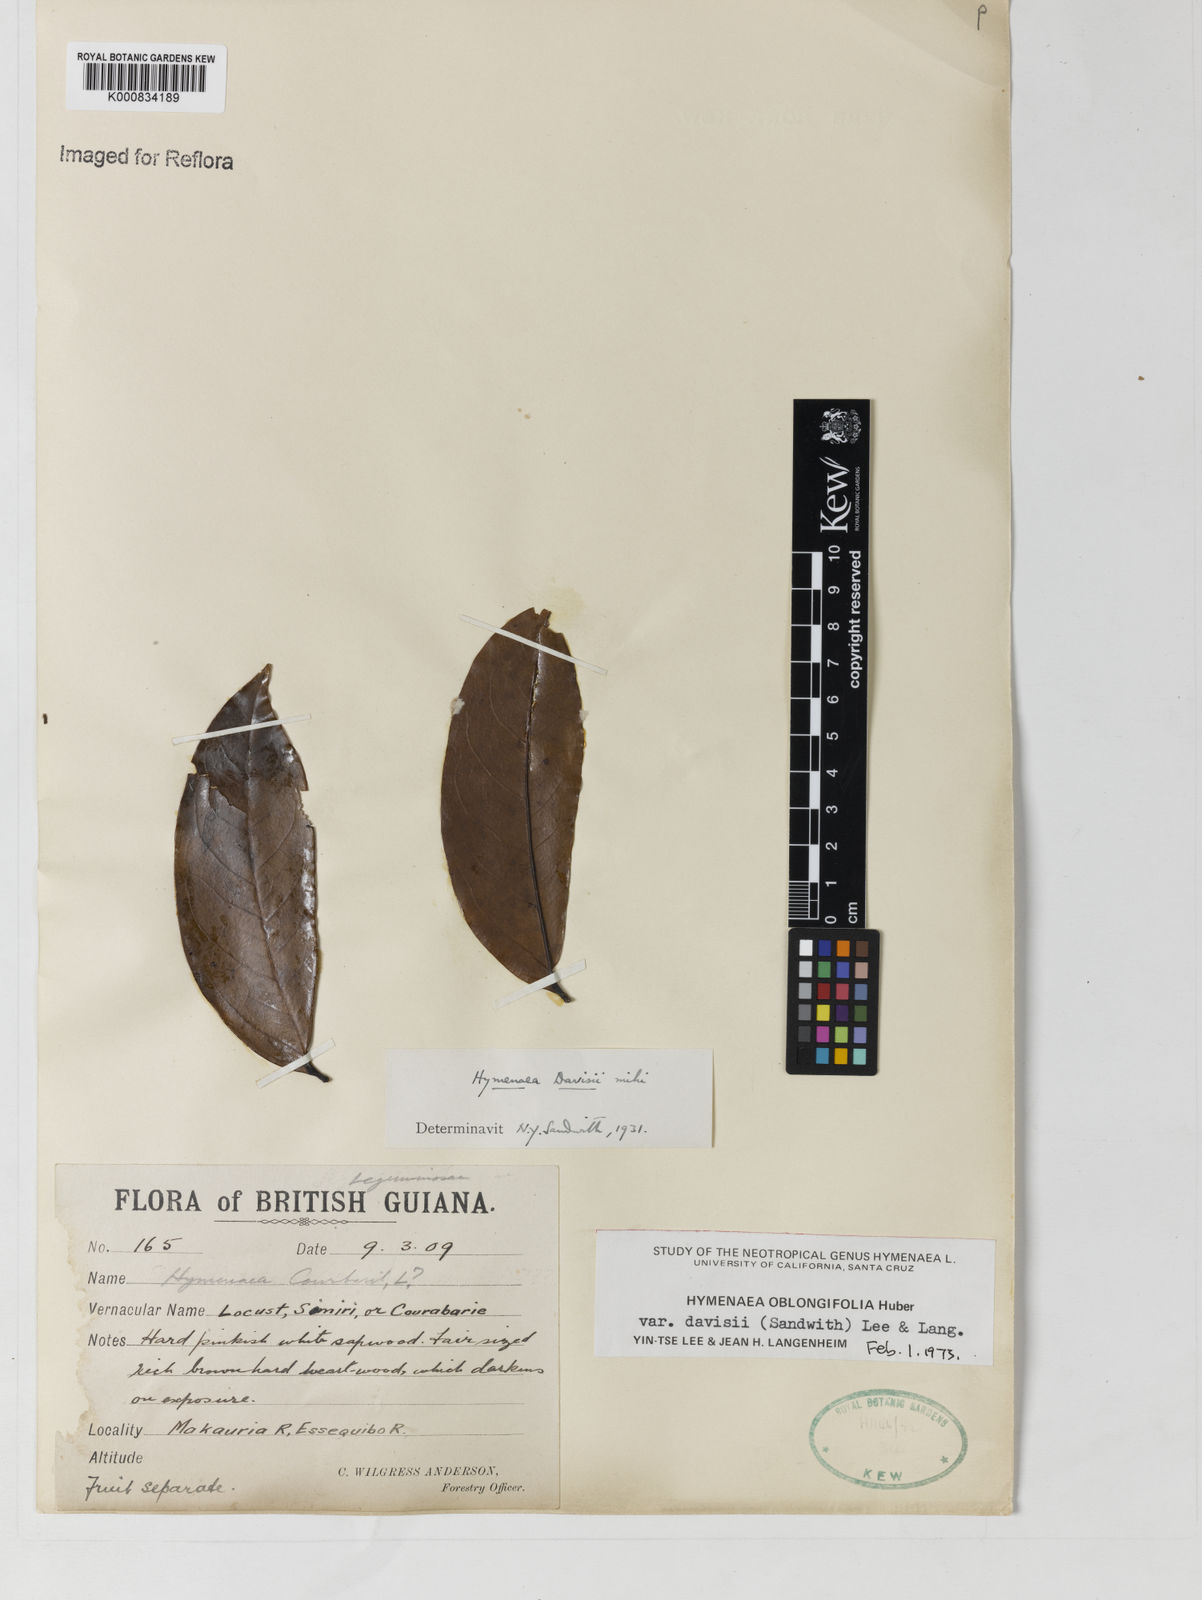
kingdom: Plantae
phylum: Tracheophyta
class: Magnoliopsida
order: Fabales
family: Fabaceae
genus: Hymenaea
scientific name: Hymenaea oblongifolia
